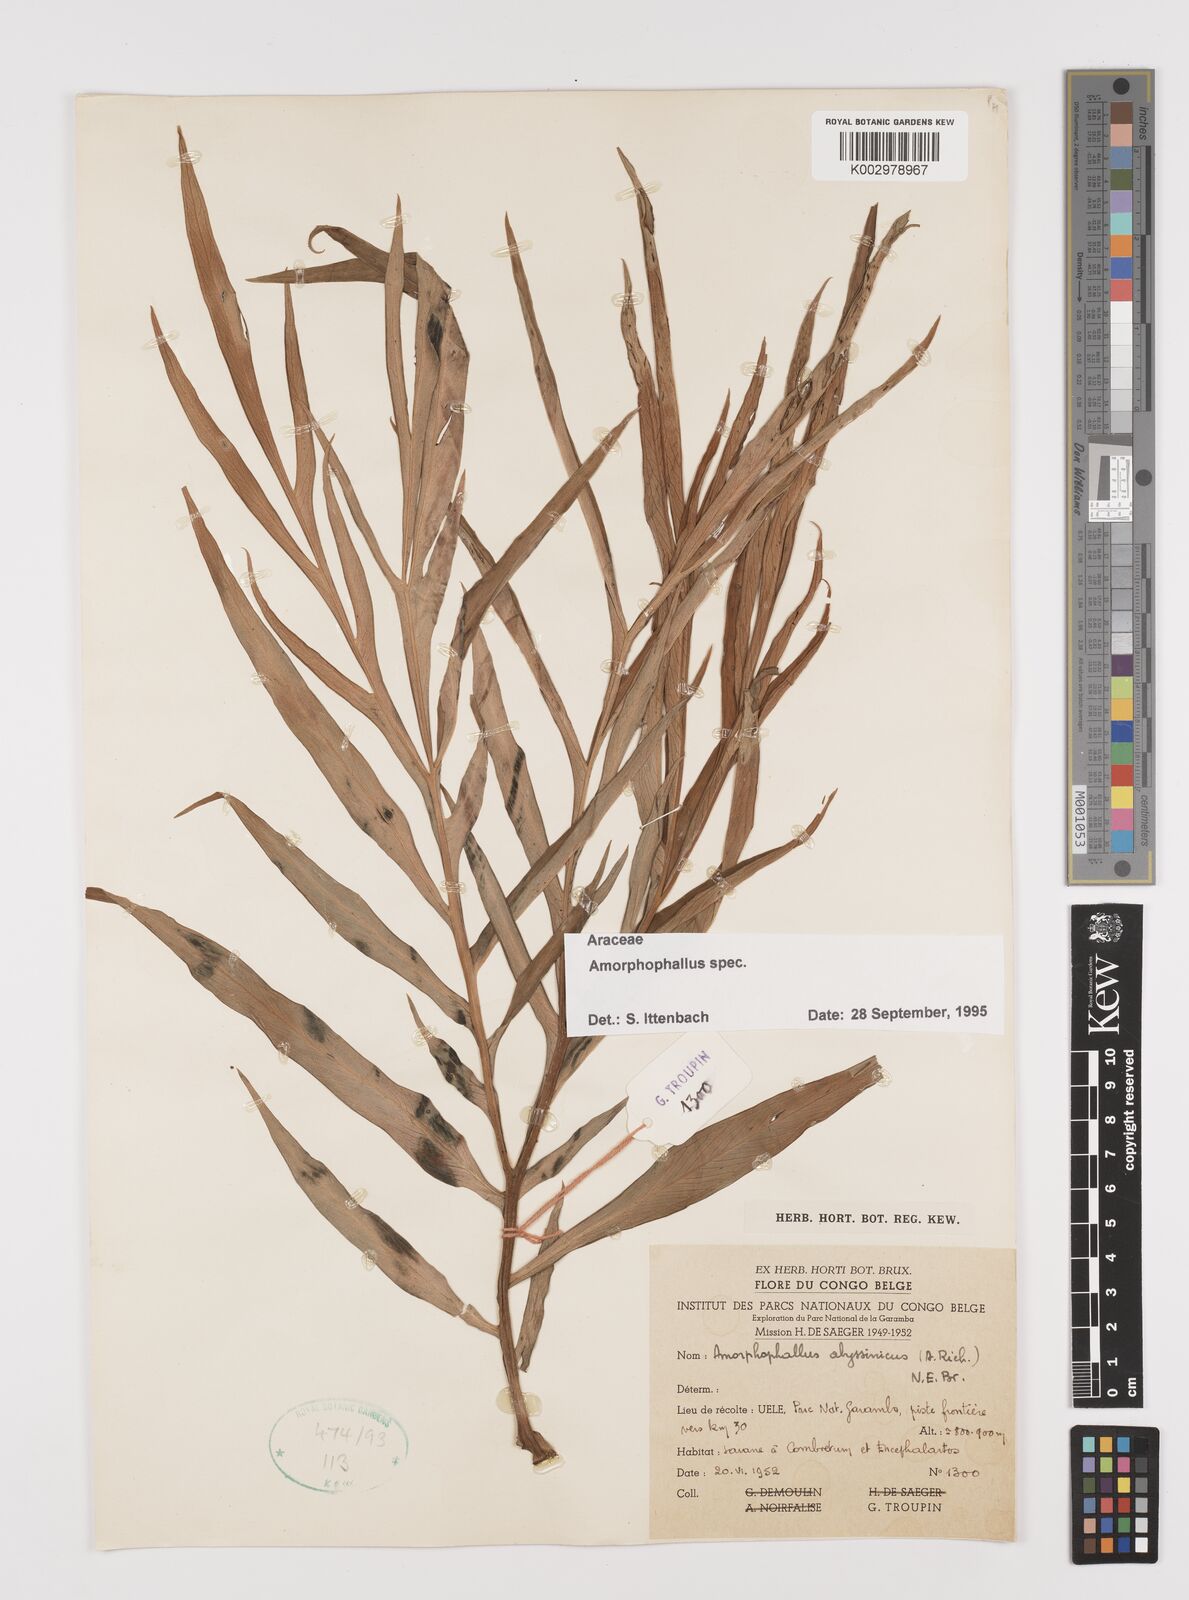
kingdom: Plantae
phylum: Tracheophyta
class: Liliopsida
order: Alismatales
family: Araceae
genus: Amorphophallus
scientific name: Amorphophallus
